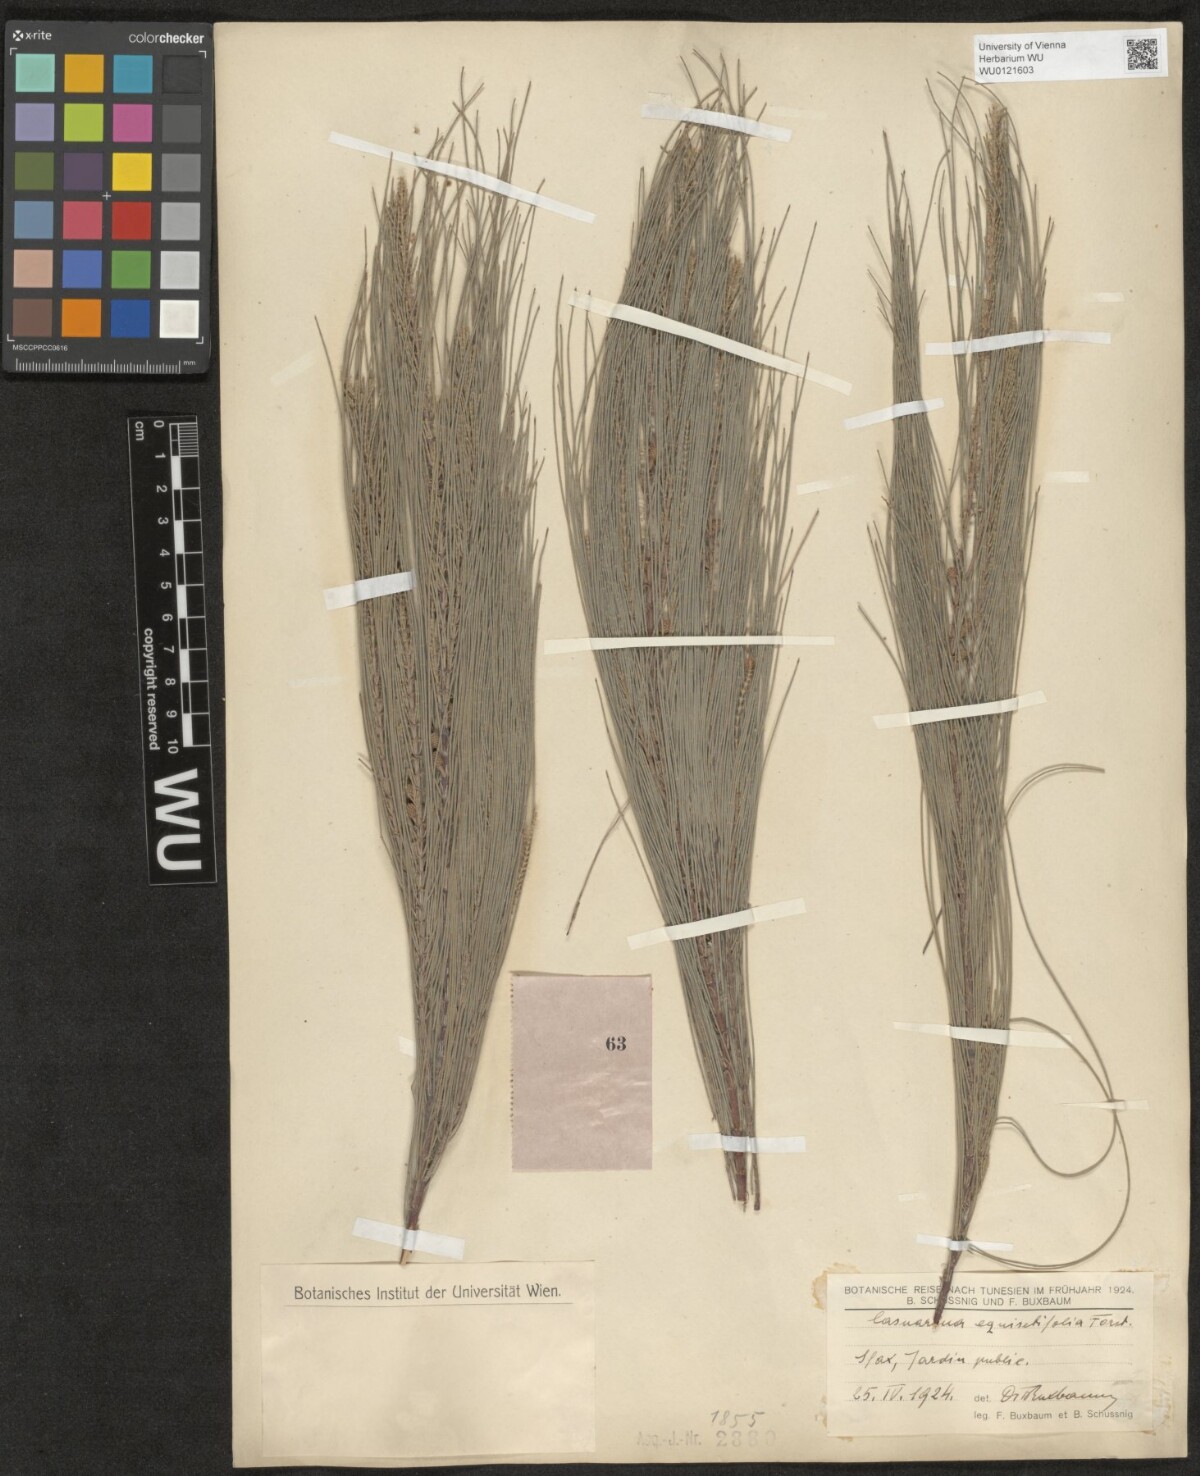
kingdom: Plantae
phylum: Tracheophyta
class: Magnoliopsida
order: Fagales
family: Casuarinaceae
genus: Casuarina
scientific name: Casuarina equisetifolia
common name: Beach sheoak
